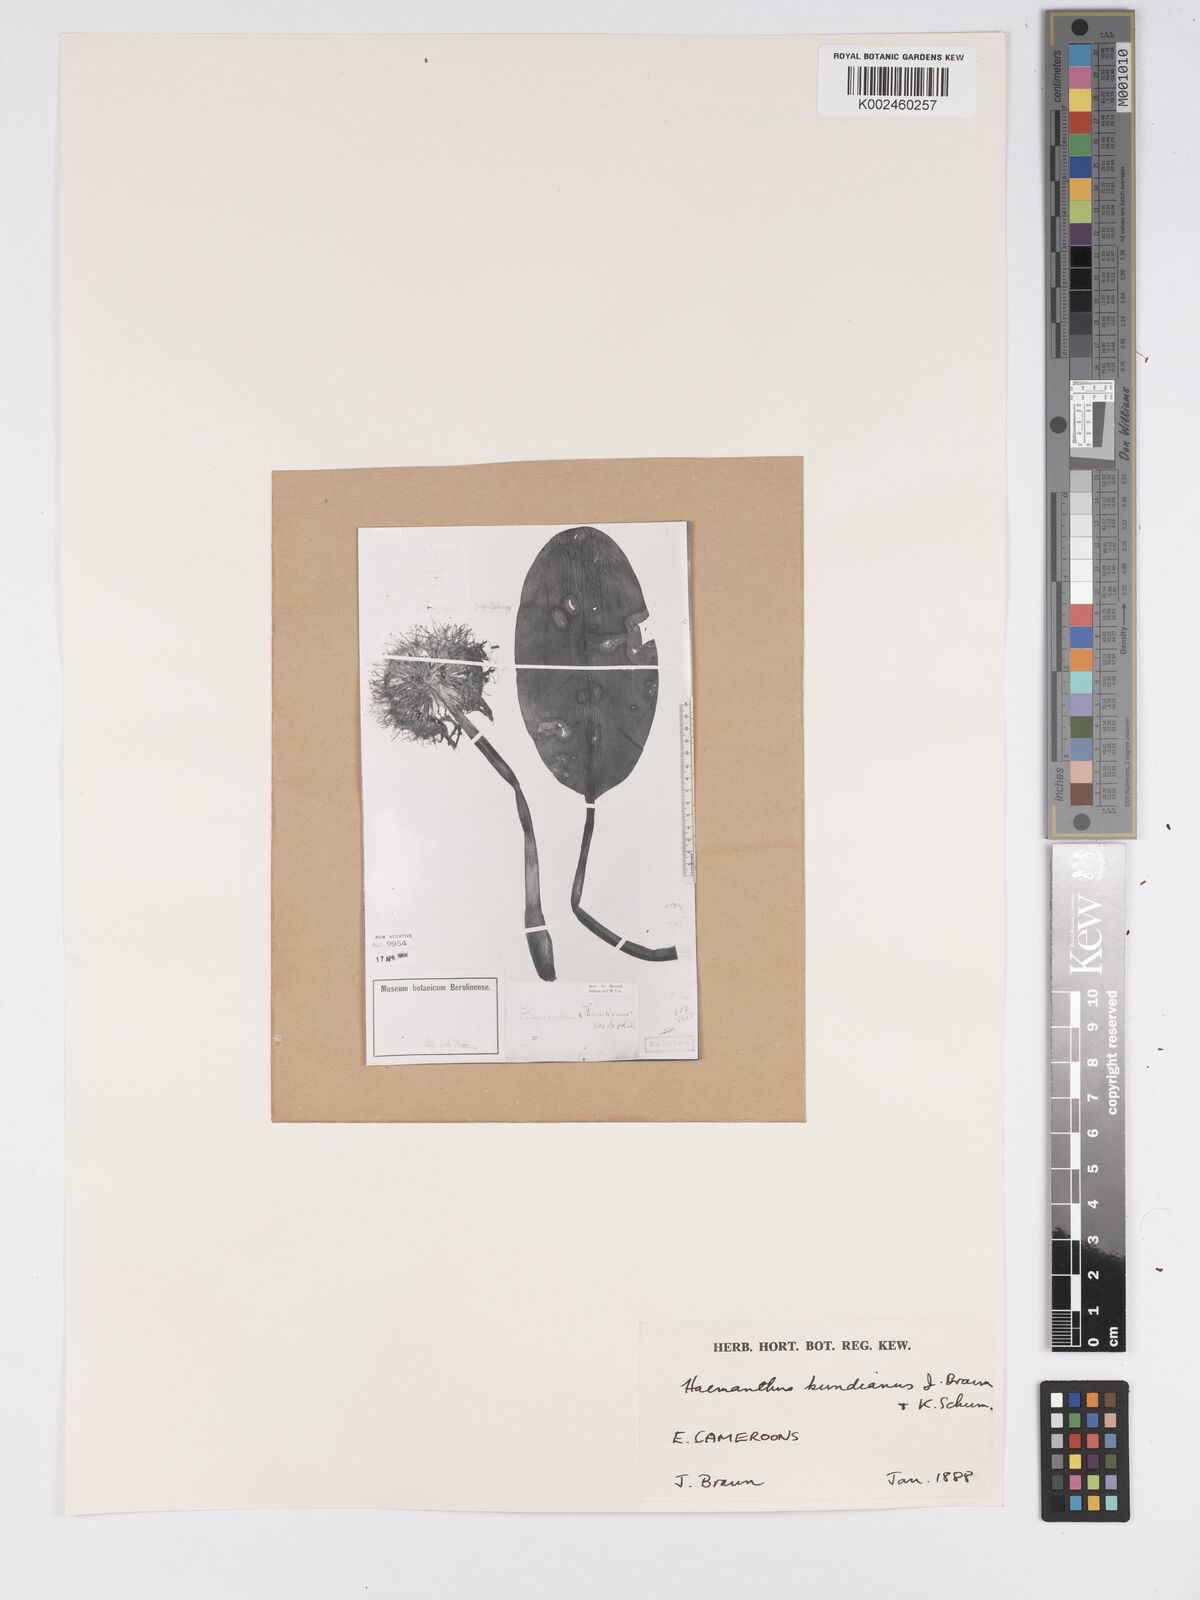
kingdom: Plantae
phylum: Tracheophyta
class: Liliopsida
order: Asparagales
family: Amaryllidaceae
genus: Scadoxus
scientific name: Scadoxus cinnabarinus
